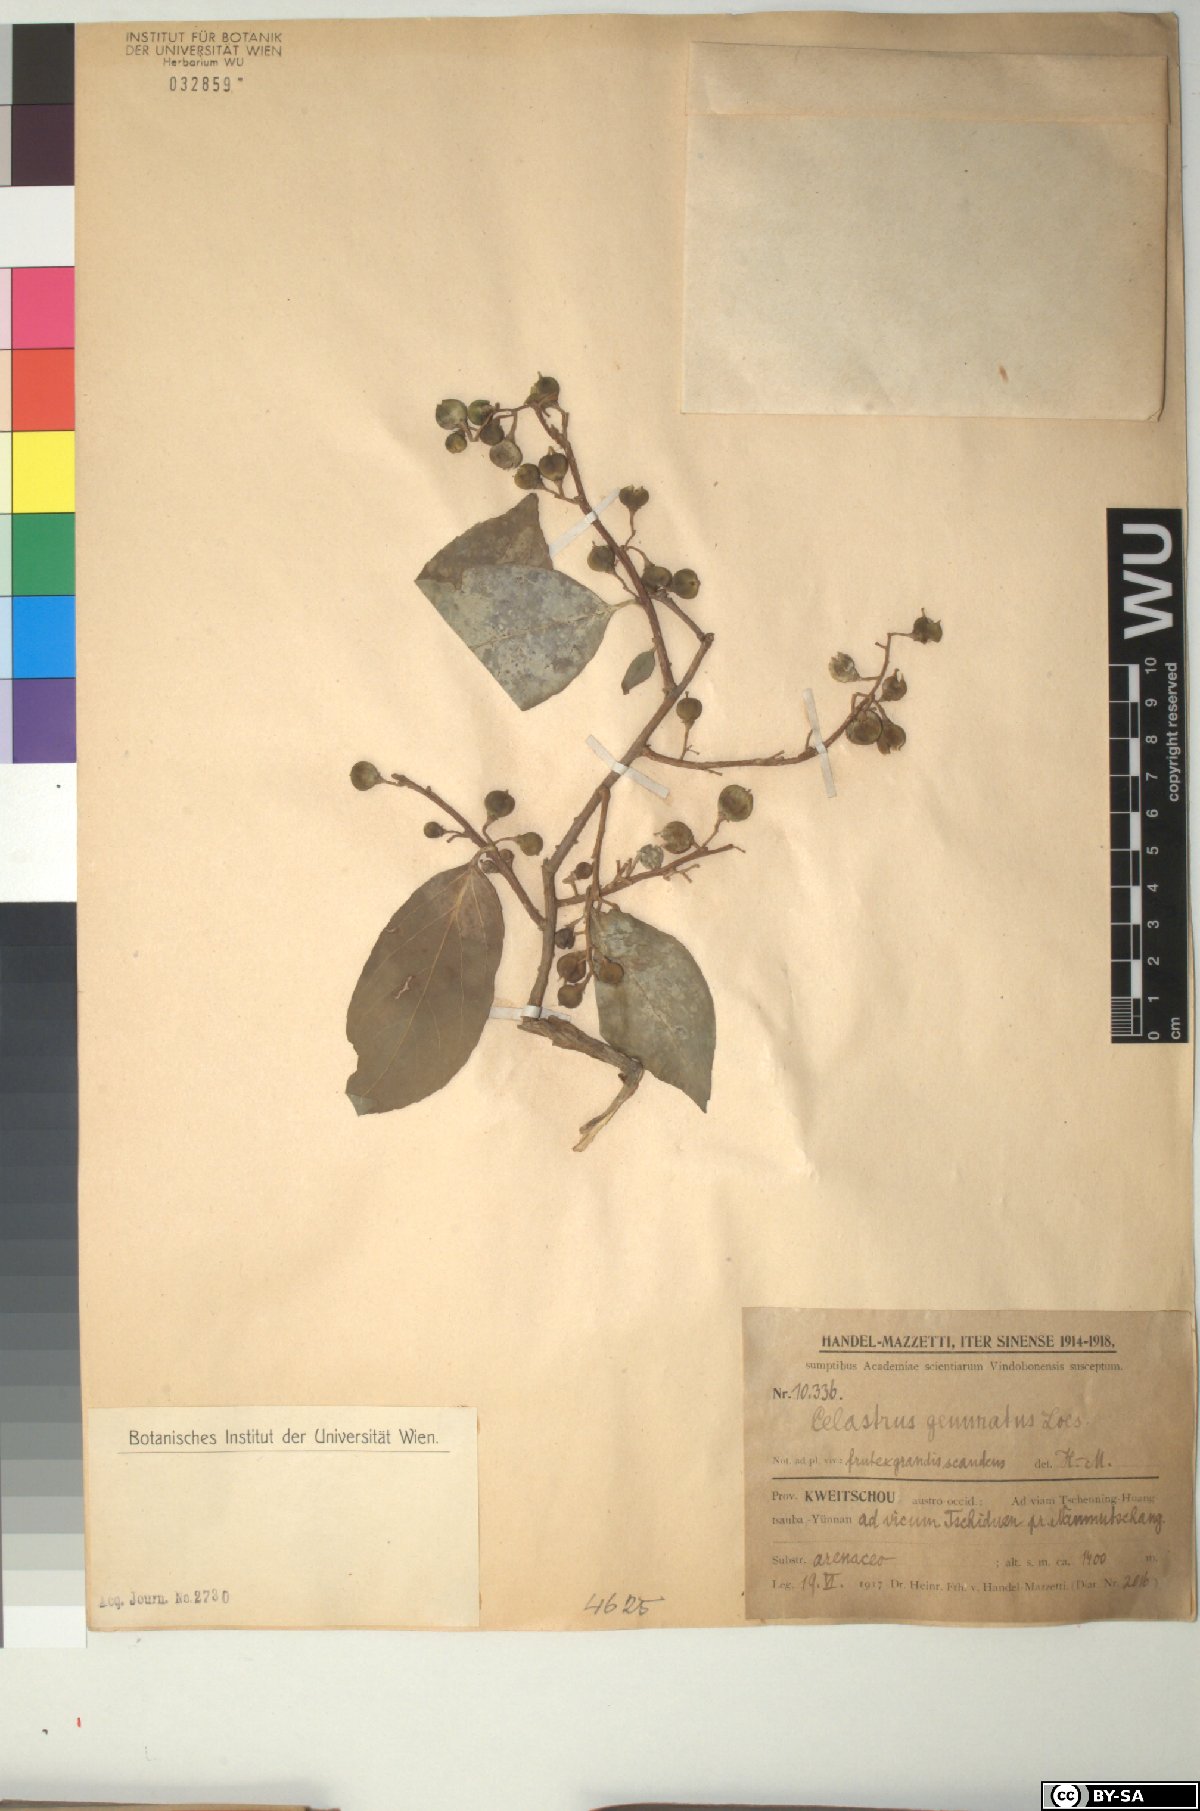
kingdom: Plantae
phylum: Tracheophyta
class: Magnoliopsida
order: Celastrales
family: Celastraceae
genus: Celastrus
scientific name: Celastrus gemmatus
